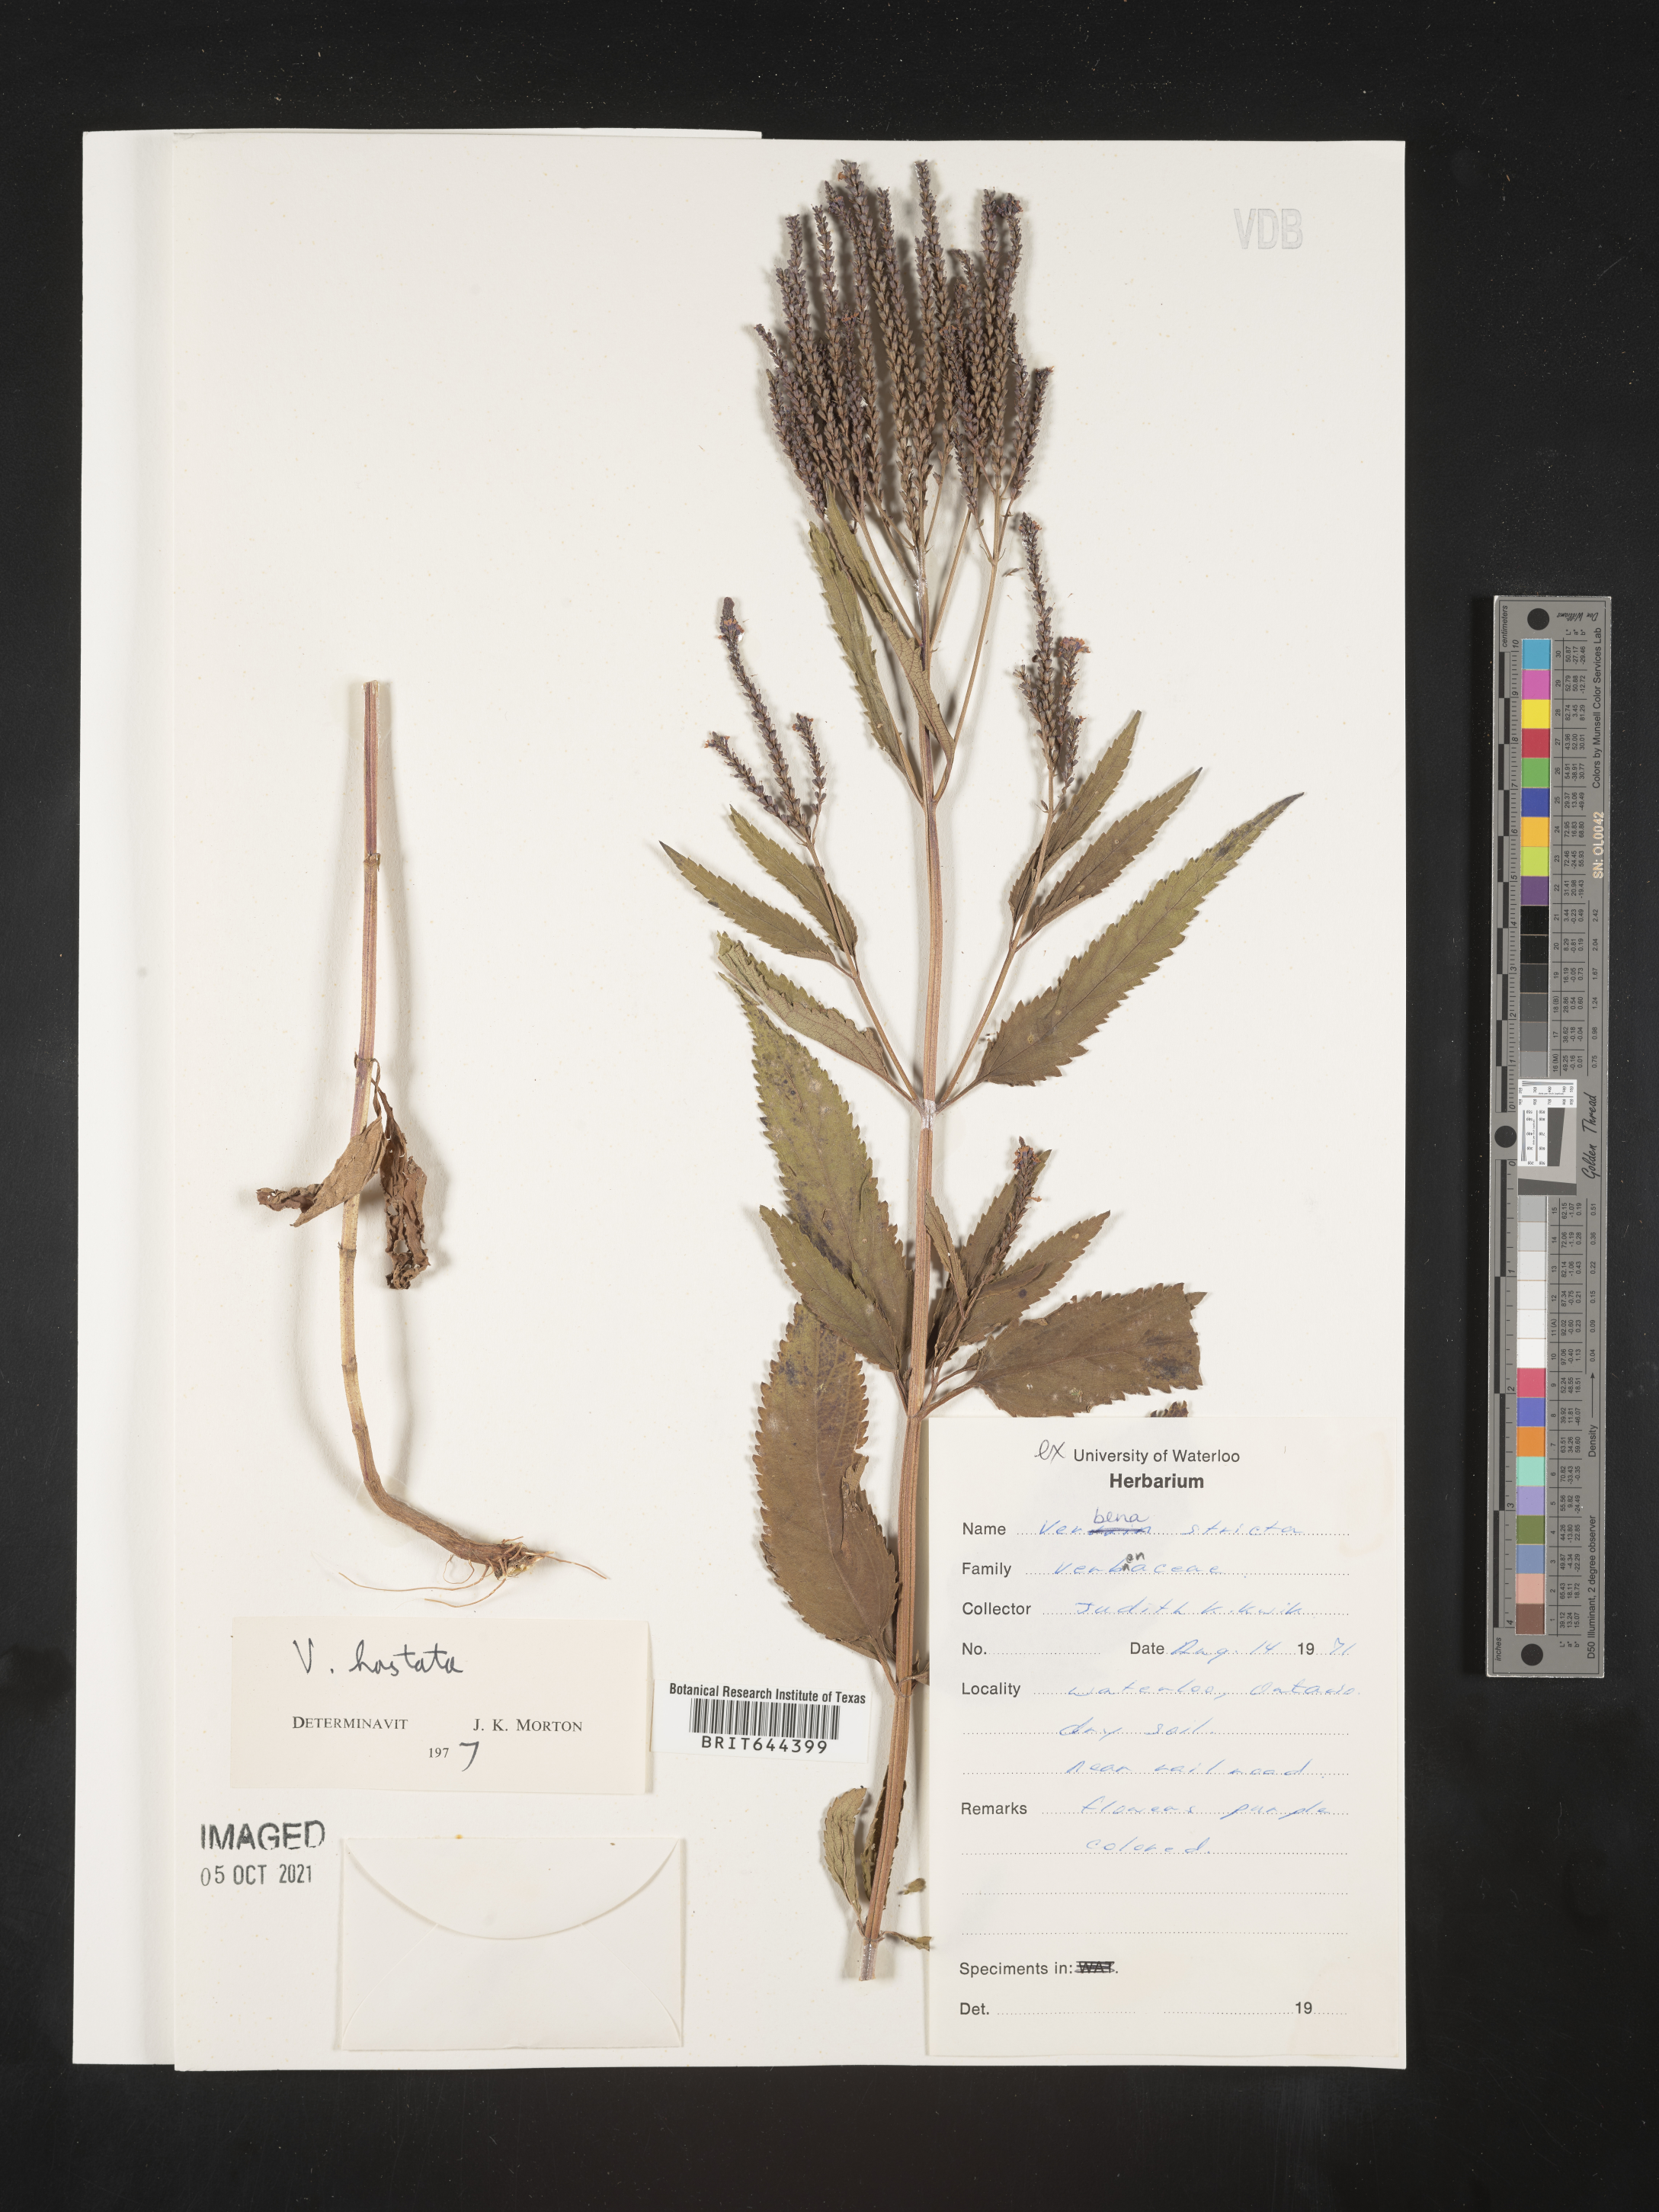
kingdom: Plantae
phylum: Tracheophyta
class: Magnoliopsida
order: Lamiales
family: Verbenaceae
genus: Verbena
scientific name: Verbena
